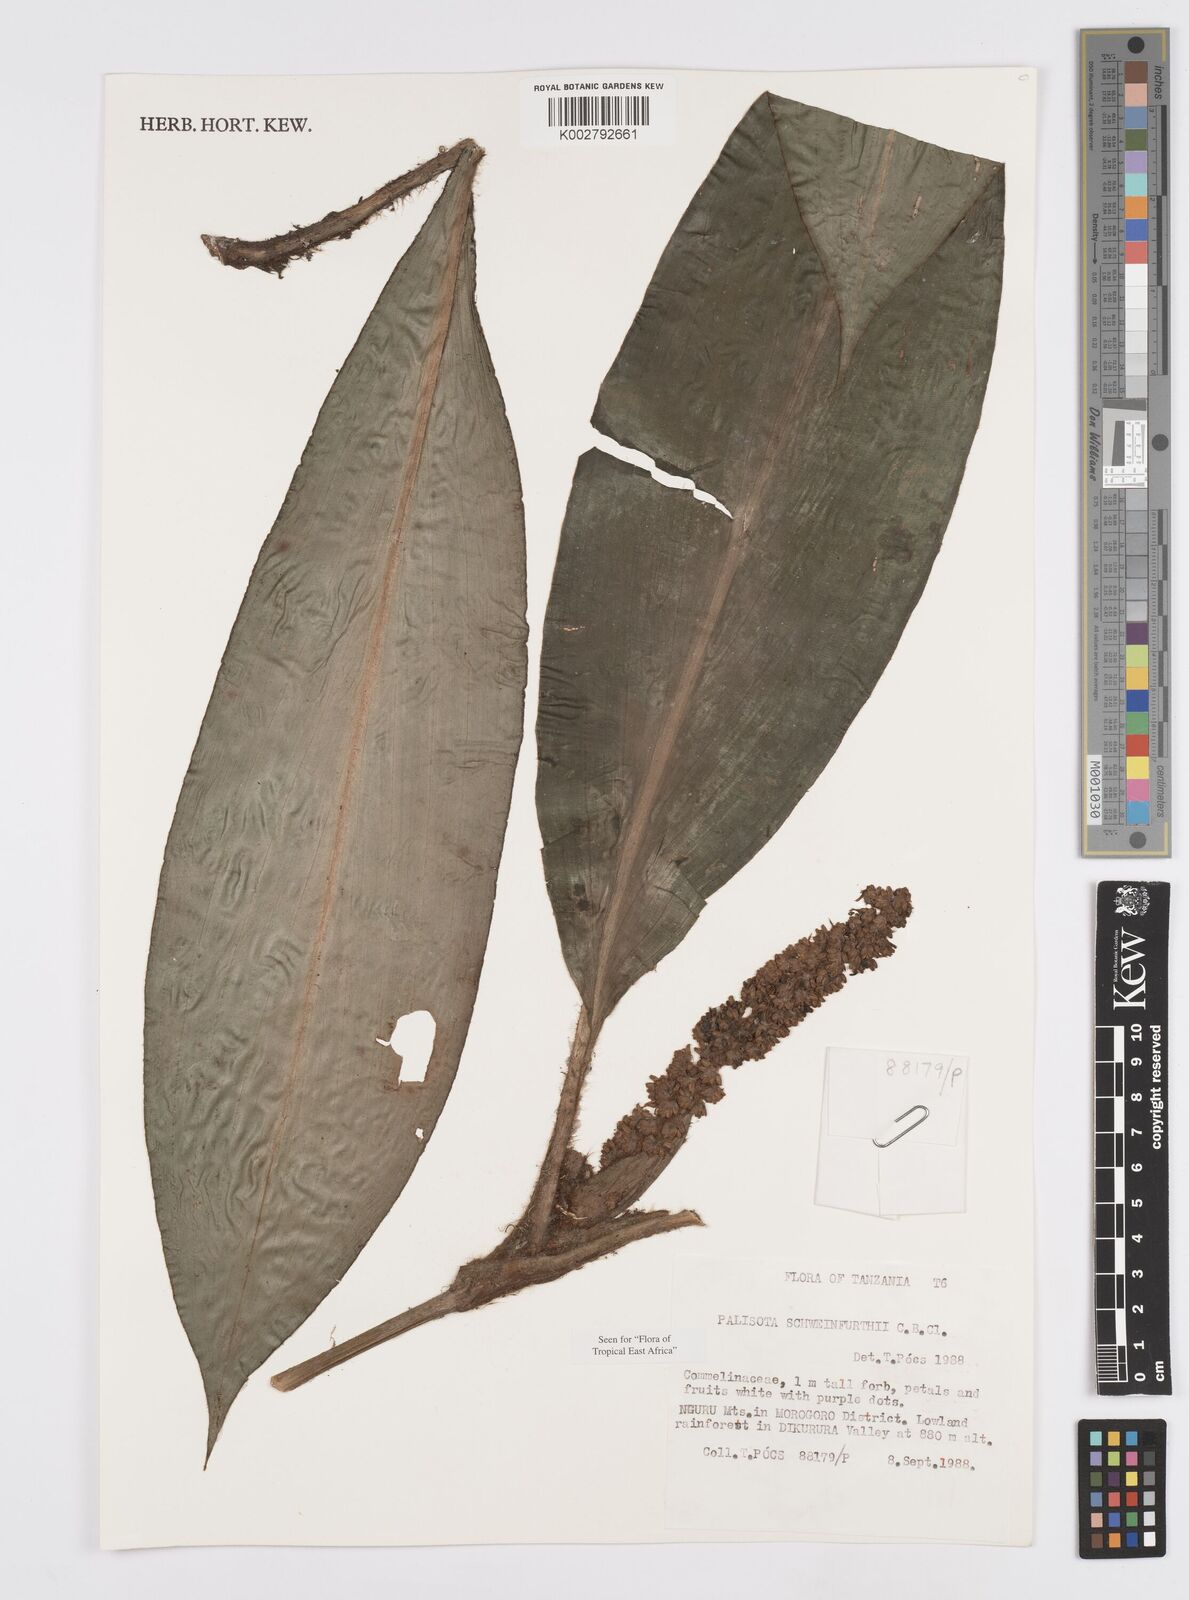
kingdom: Plantae
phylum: Tracheophyta
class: Liliopsida
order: Commelinales
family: Commelinaceae
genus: Palisota
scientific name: Palisota schweinfurthii
